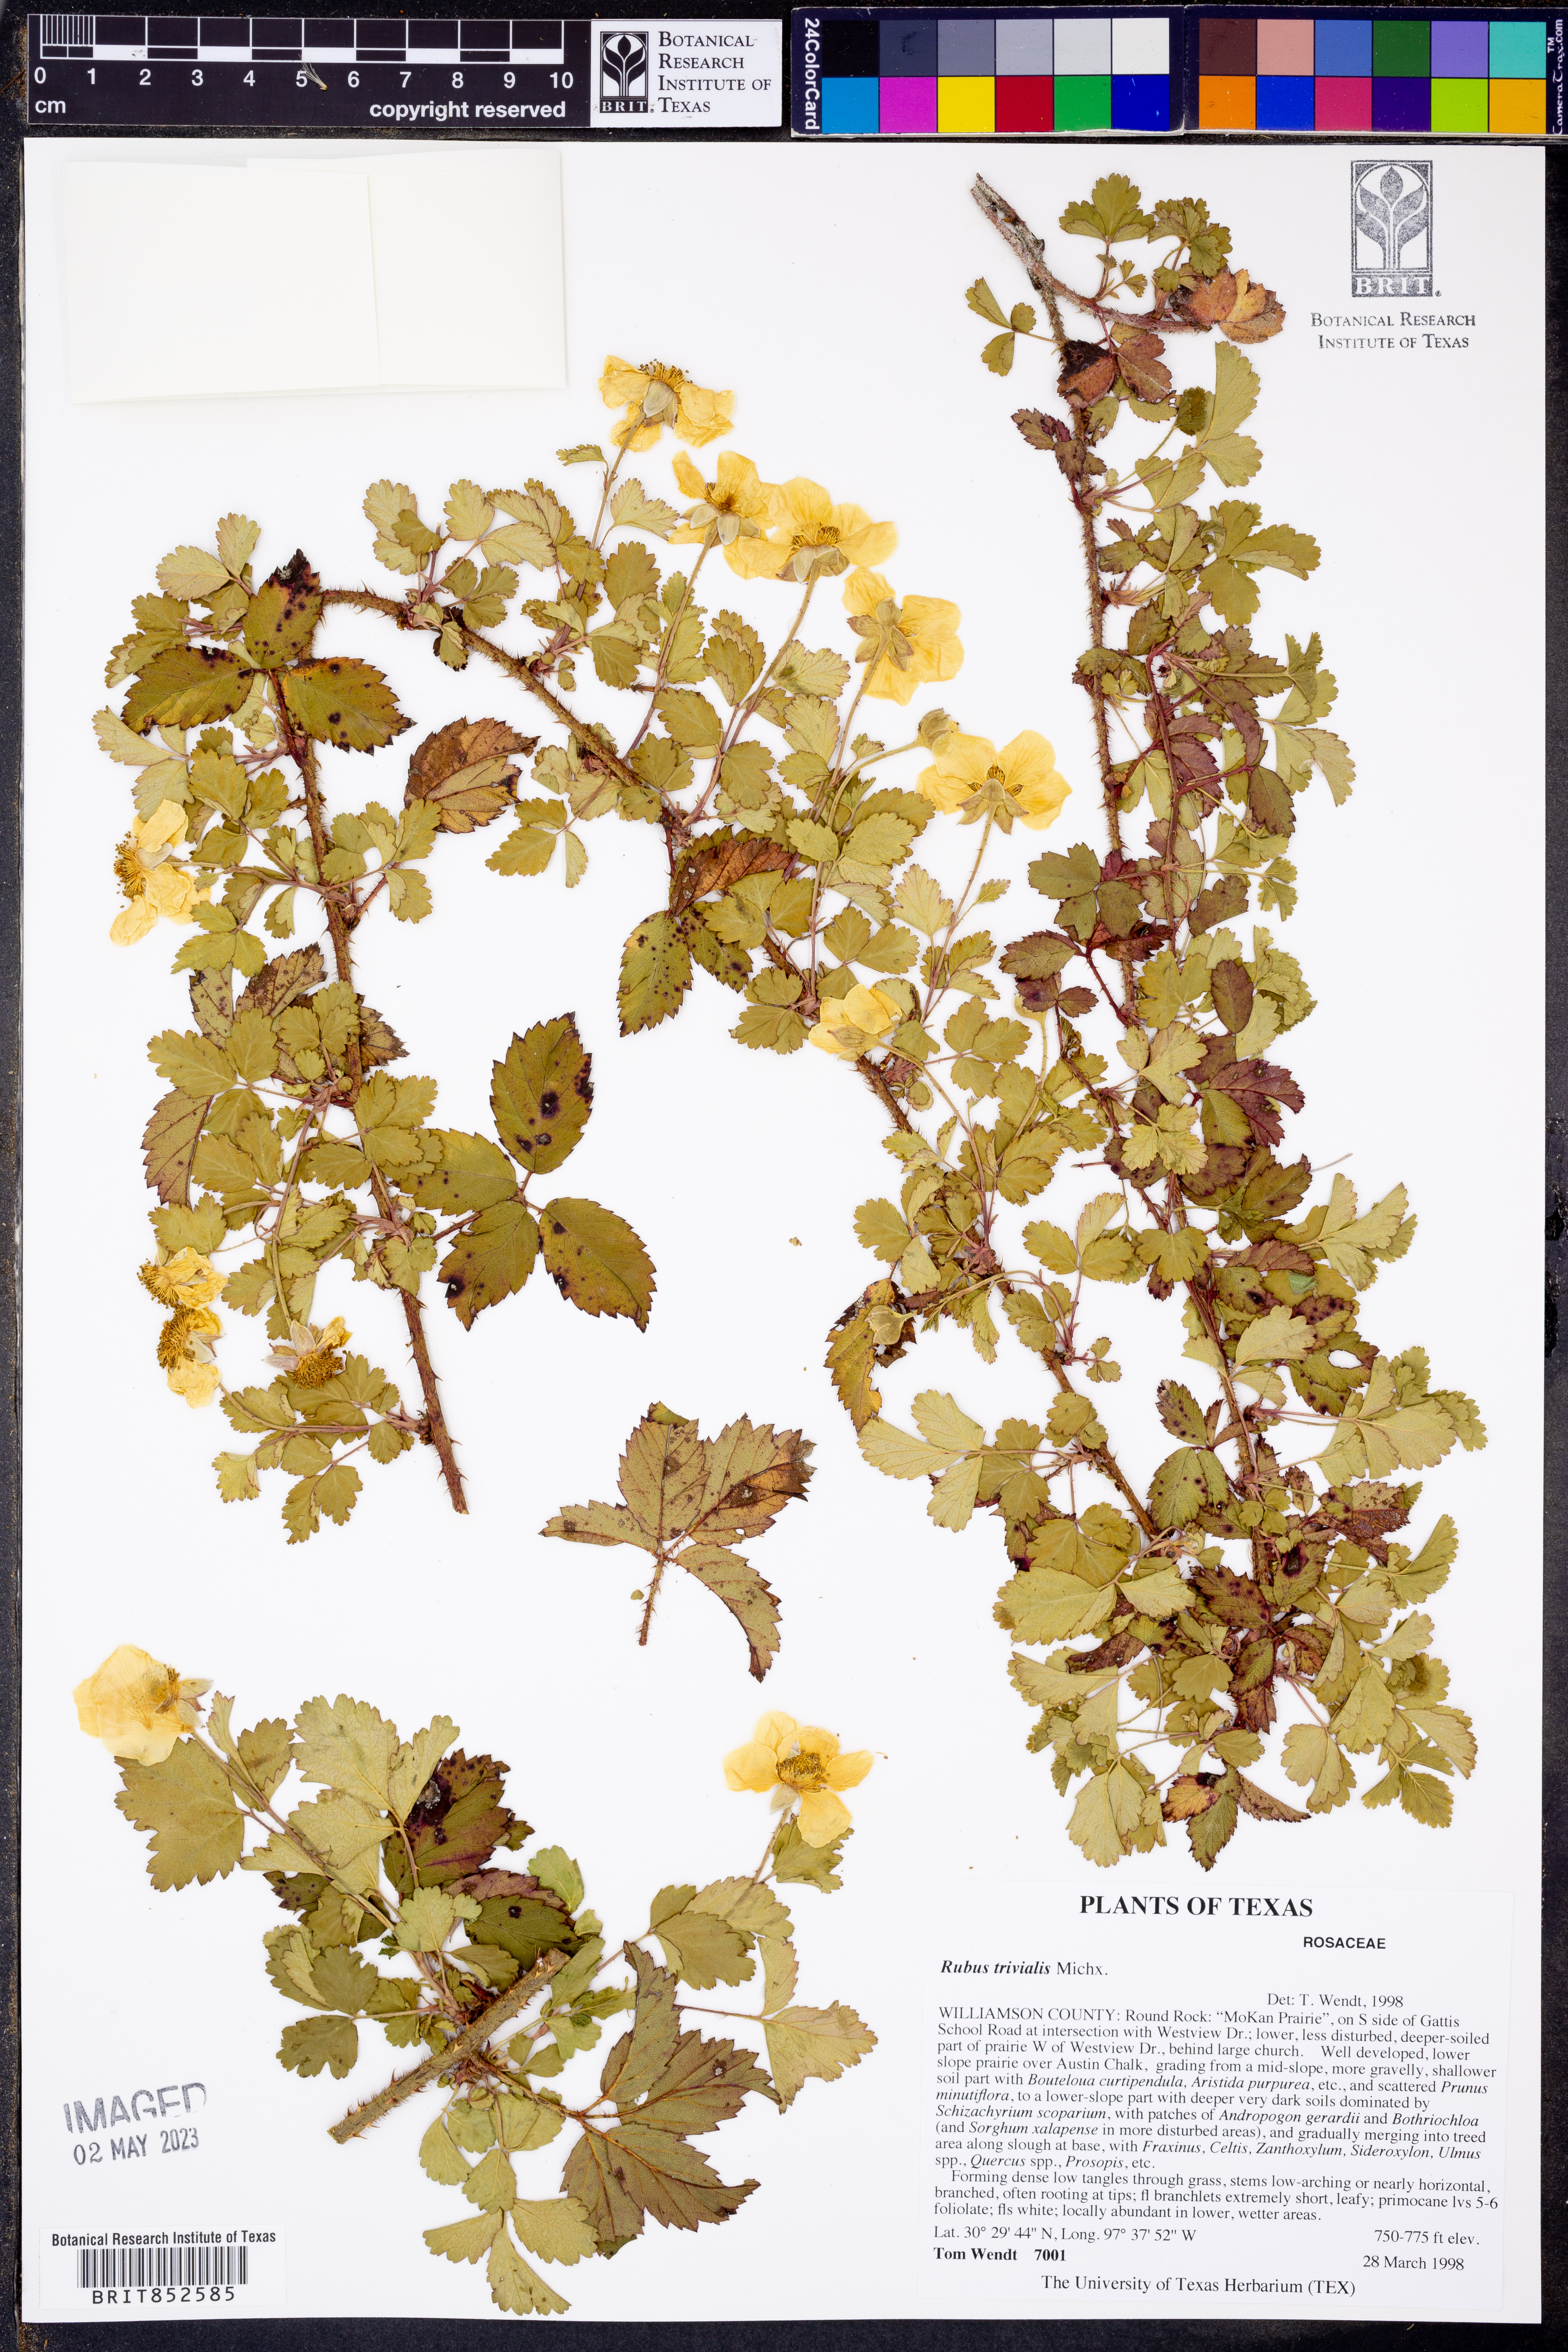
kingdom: Plantae
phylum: Tracheophyta
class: Magnoliopsida
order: Rosales
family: Rosaceae
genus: Rubus
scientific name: Rubus trivialis
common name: Southern dewberry
